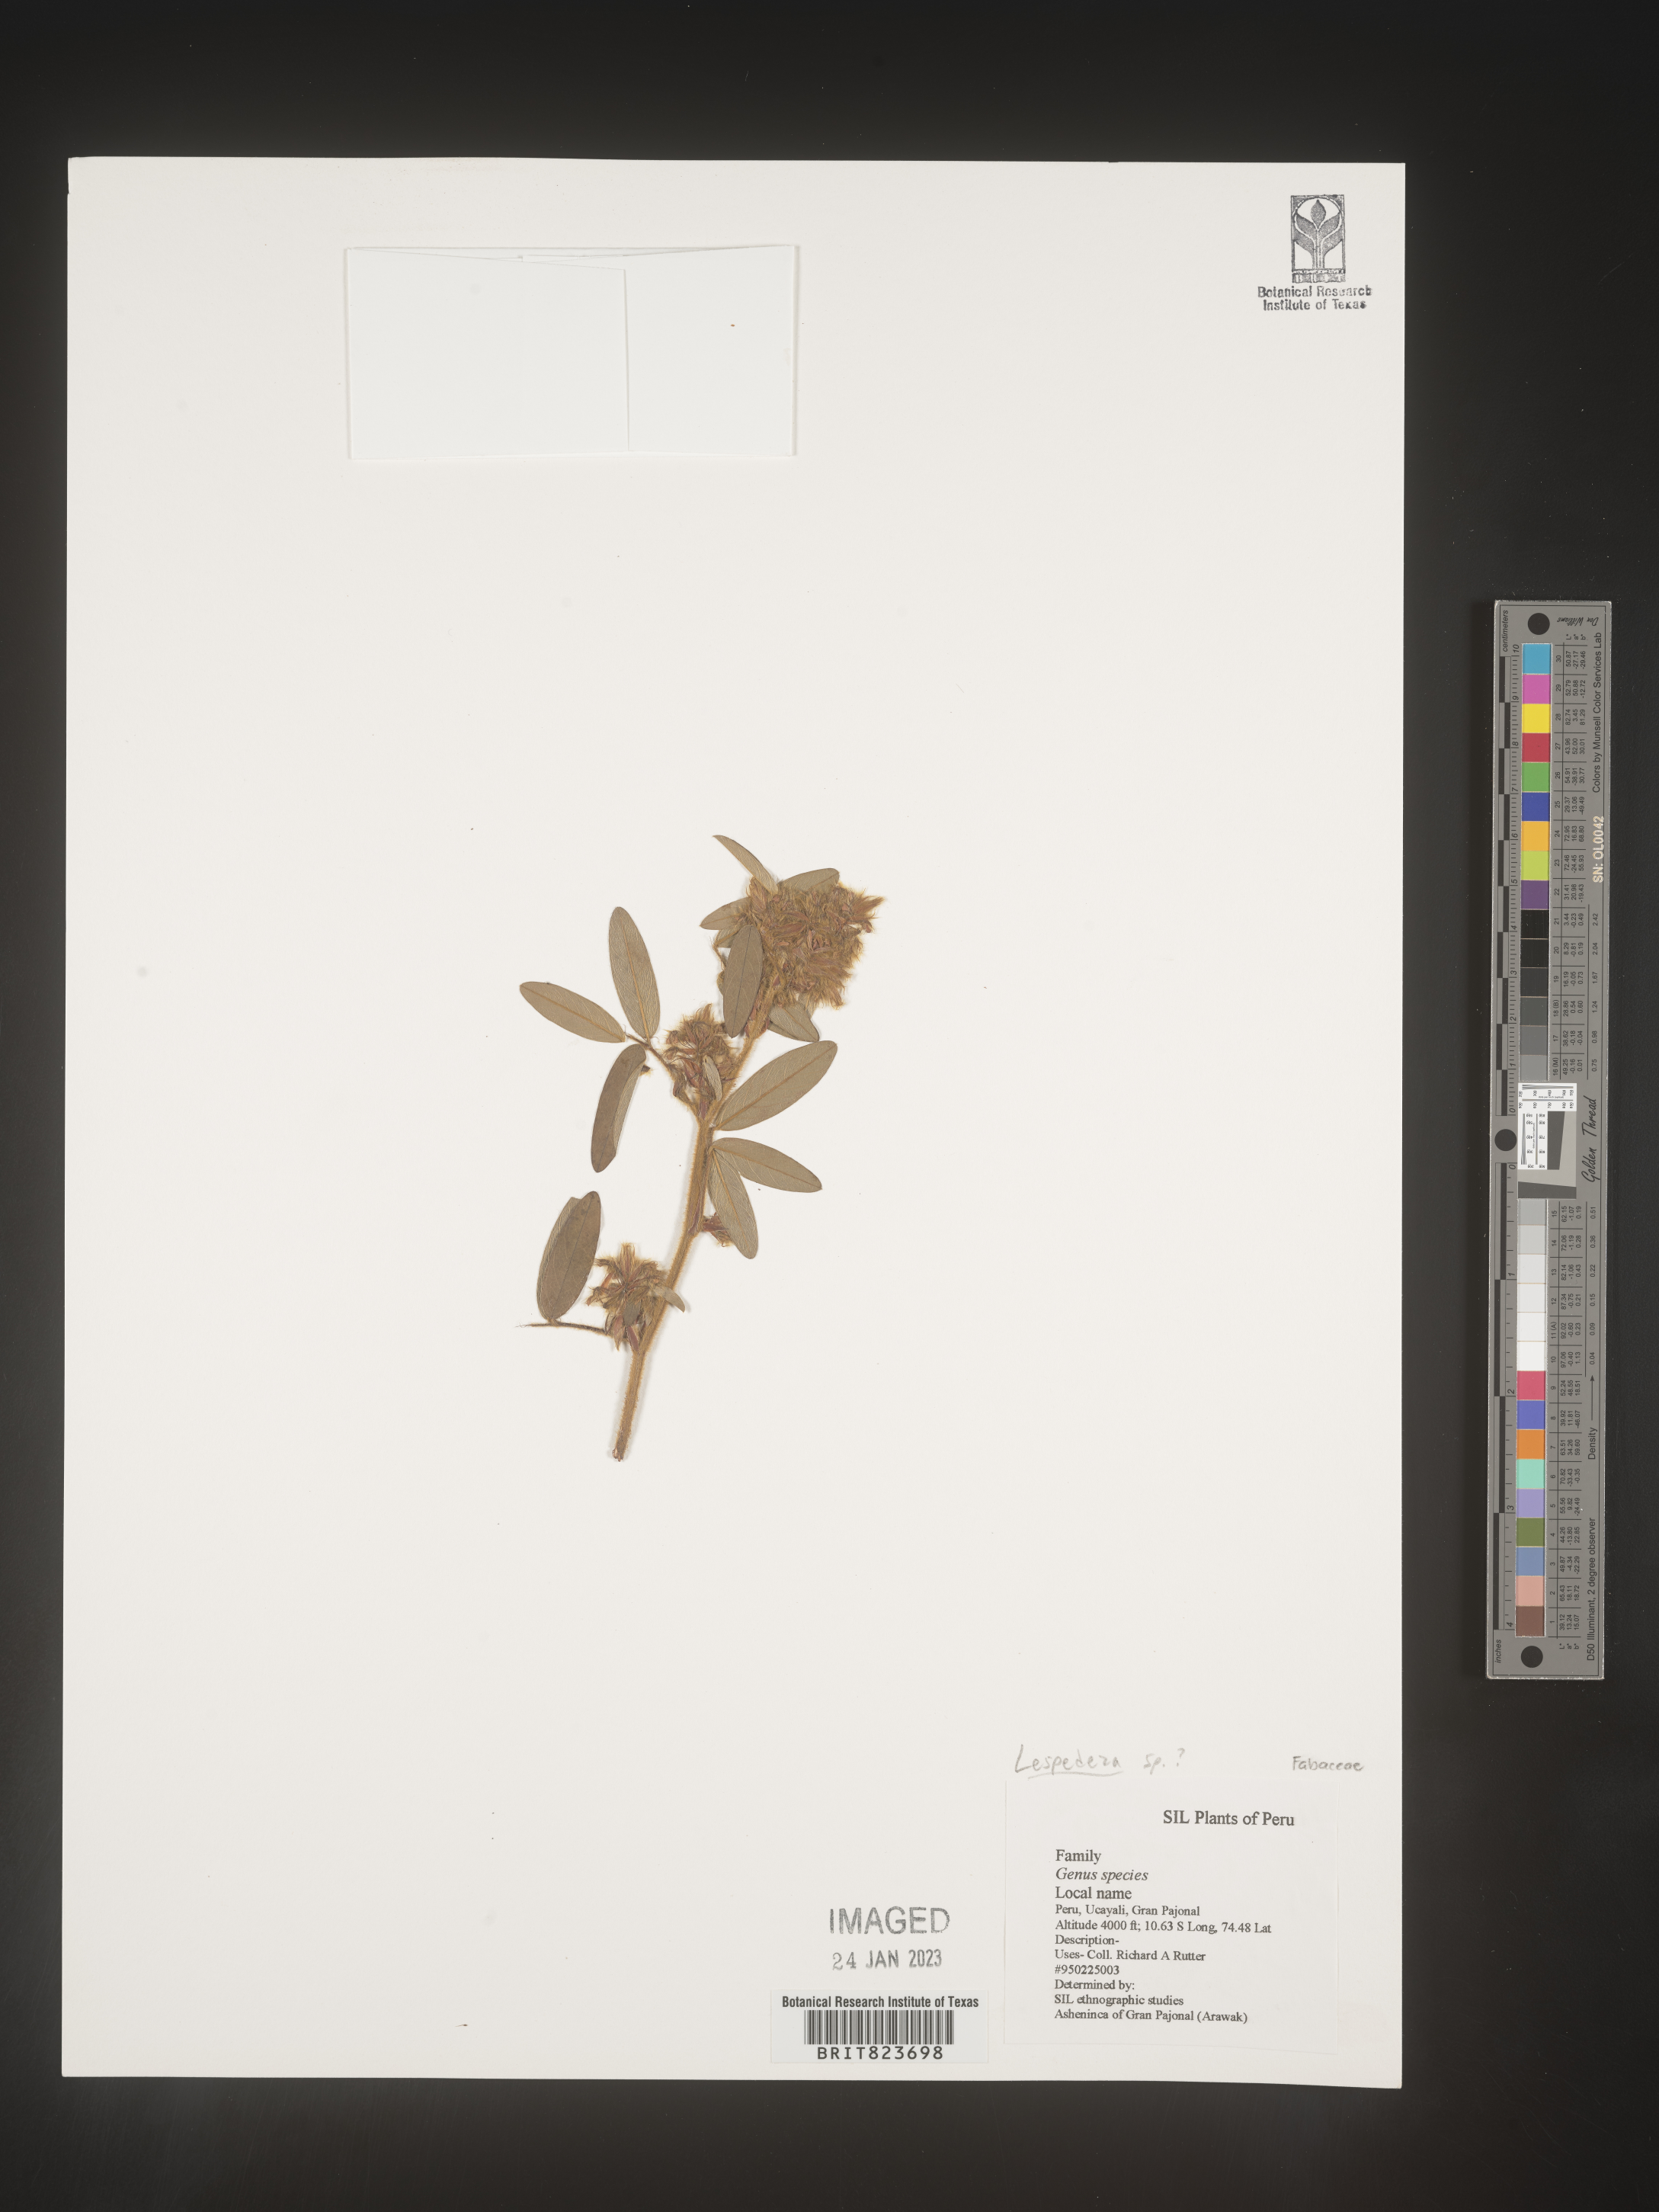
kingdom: Plantae
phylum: Tracheophyta
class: Magnoliopsida
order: Fabales
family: Fabaceae
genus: Lespedeza
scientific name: Lespedeza
